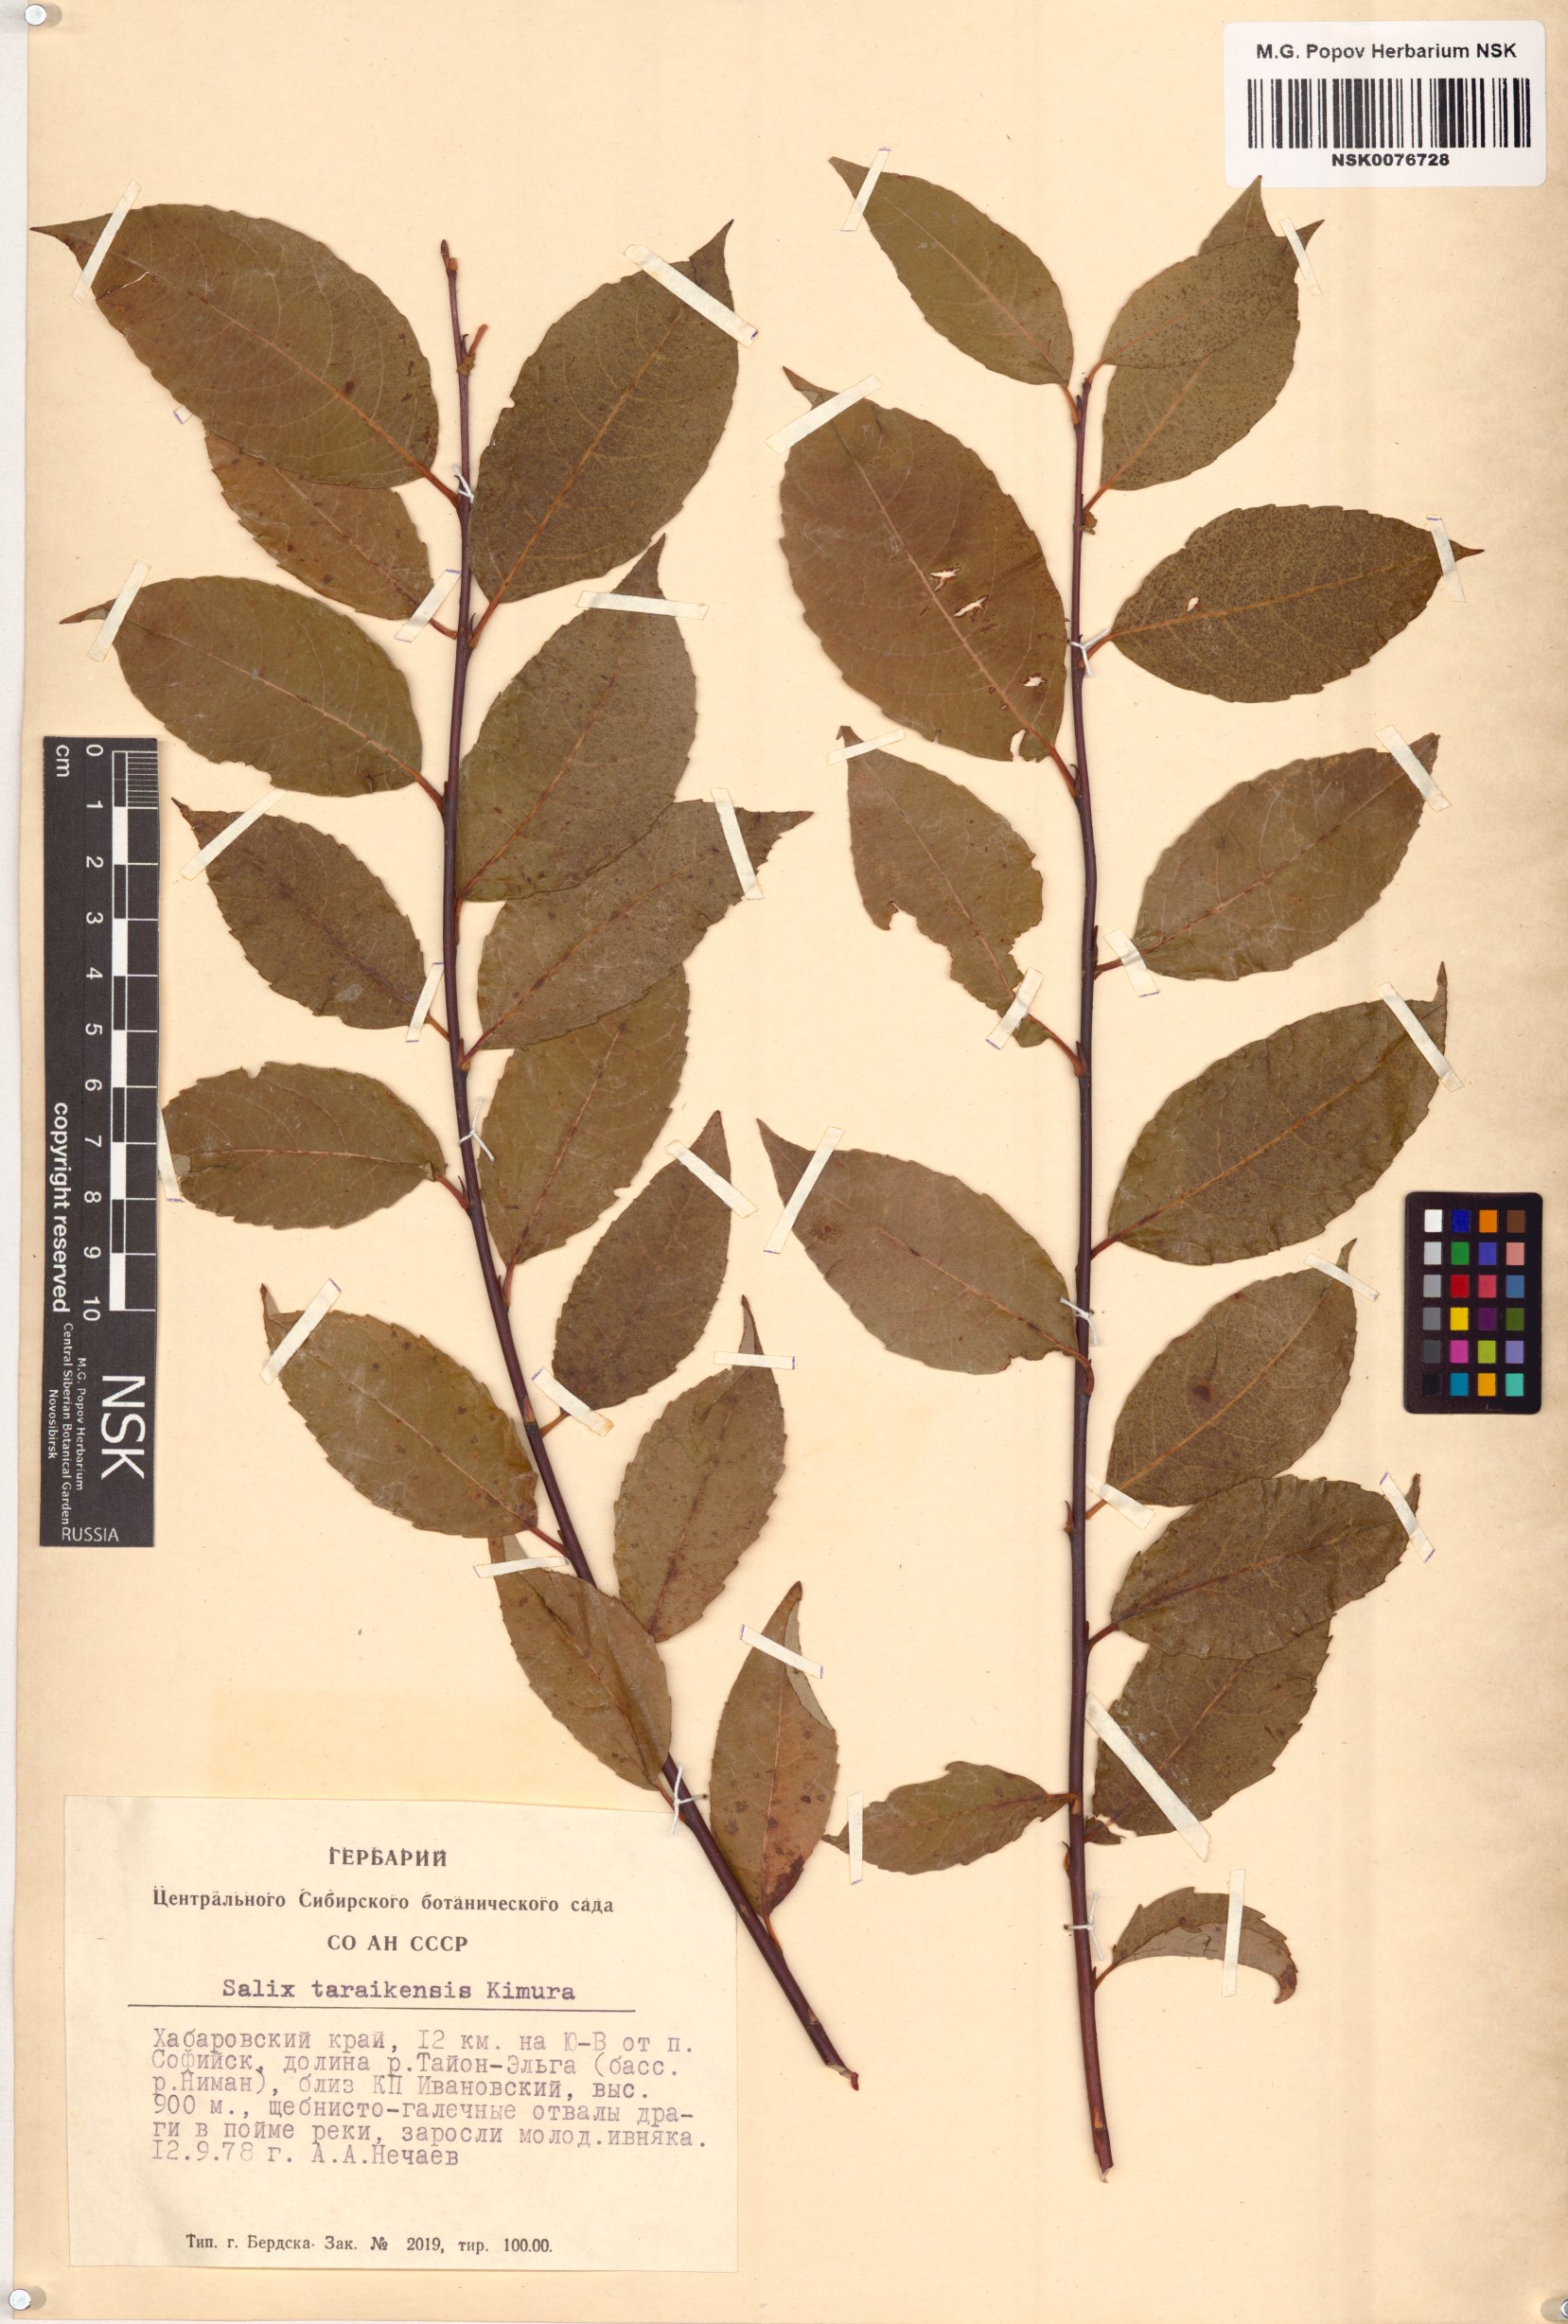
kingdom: Plantae
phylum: Tracheophyta
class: Magnoliopsida
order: Malpighiales
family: Salicaceae
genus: Salix
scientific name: Salix taraikensis
